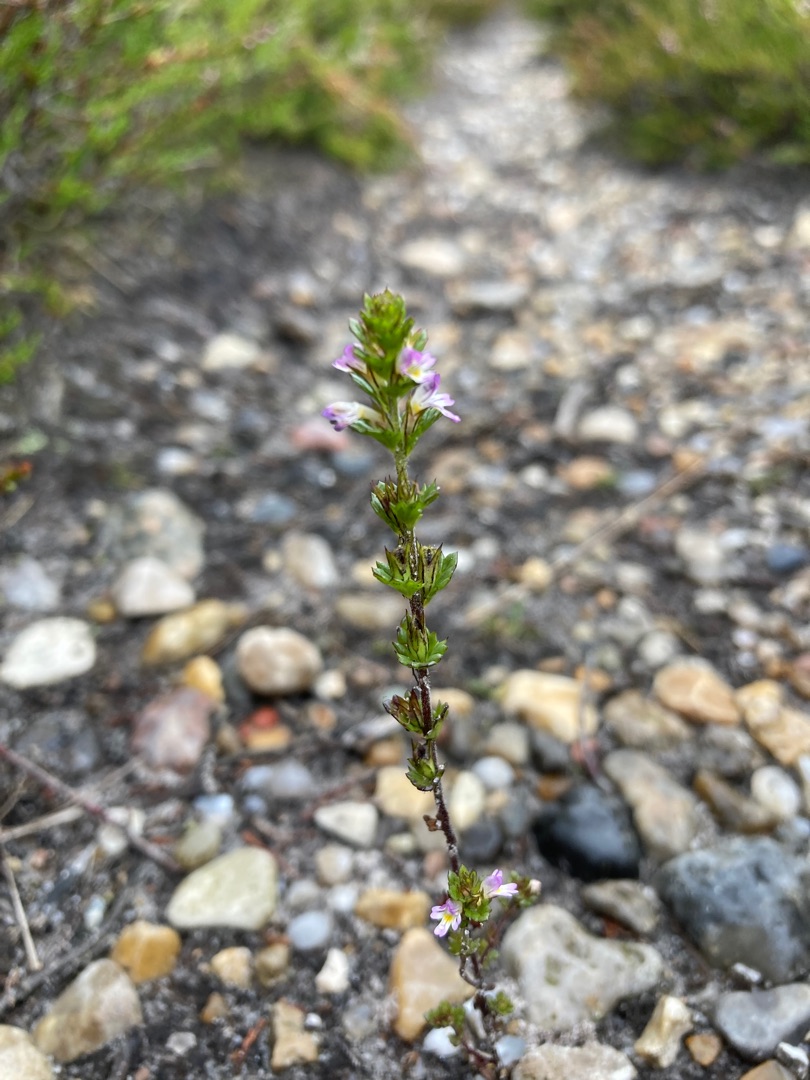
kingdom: Plantae
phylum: Tracheophyta
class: Magnoliopsida
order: Lamiales
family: Orobanchaceae
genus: Euphrasia
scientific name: Euphrasia micrantha
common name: Lyng-øjentrøst
